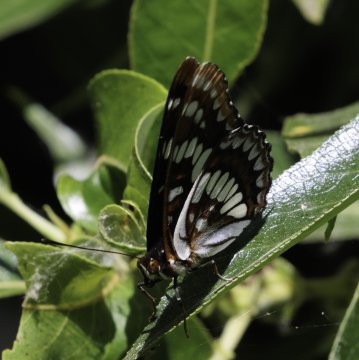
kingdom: Animalia
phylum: Arthropoda
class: Insecta
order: Lepidoptera
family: Nymphalidae
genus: Limenitis
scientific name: Limenitis lorquini
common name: Lorquin's Admiral
